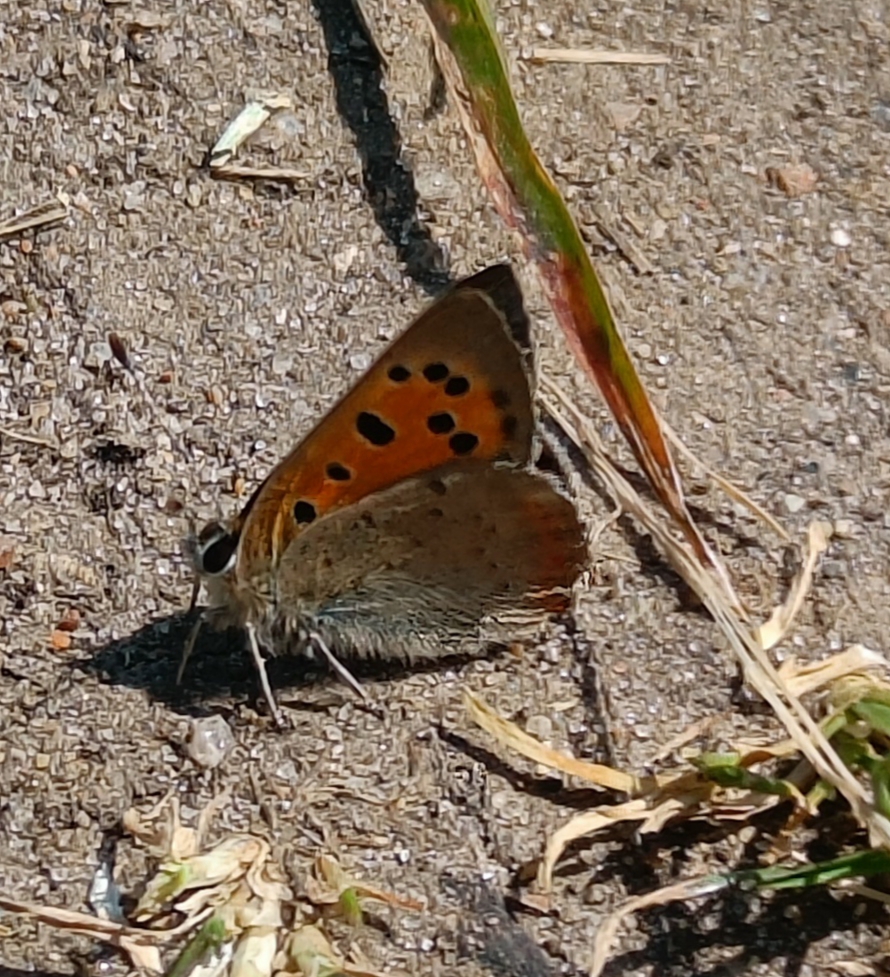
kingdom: Animalia
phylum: Arthropoda
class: Insecta
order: Lepidoptera
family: Lycaenidae
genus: Lycaena
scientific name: Lycaena phlaeas
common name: Lille ildfugl
